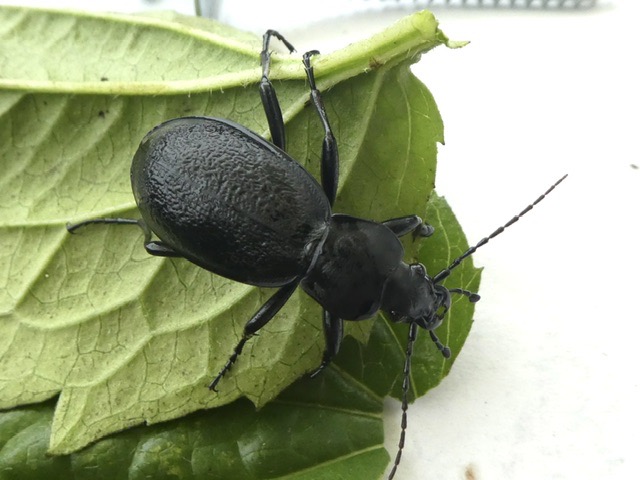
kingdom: Animalia
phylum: Arthropoda
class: Insecta
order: Coleoptera
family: Carabidae
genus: Carabus
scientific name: Carabus coriaceus
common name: Læderløber
